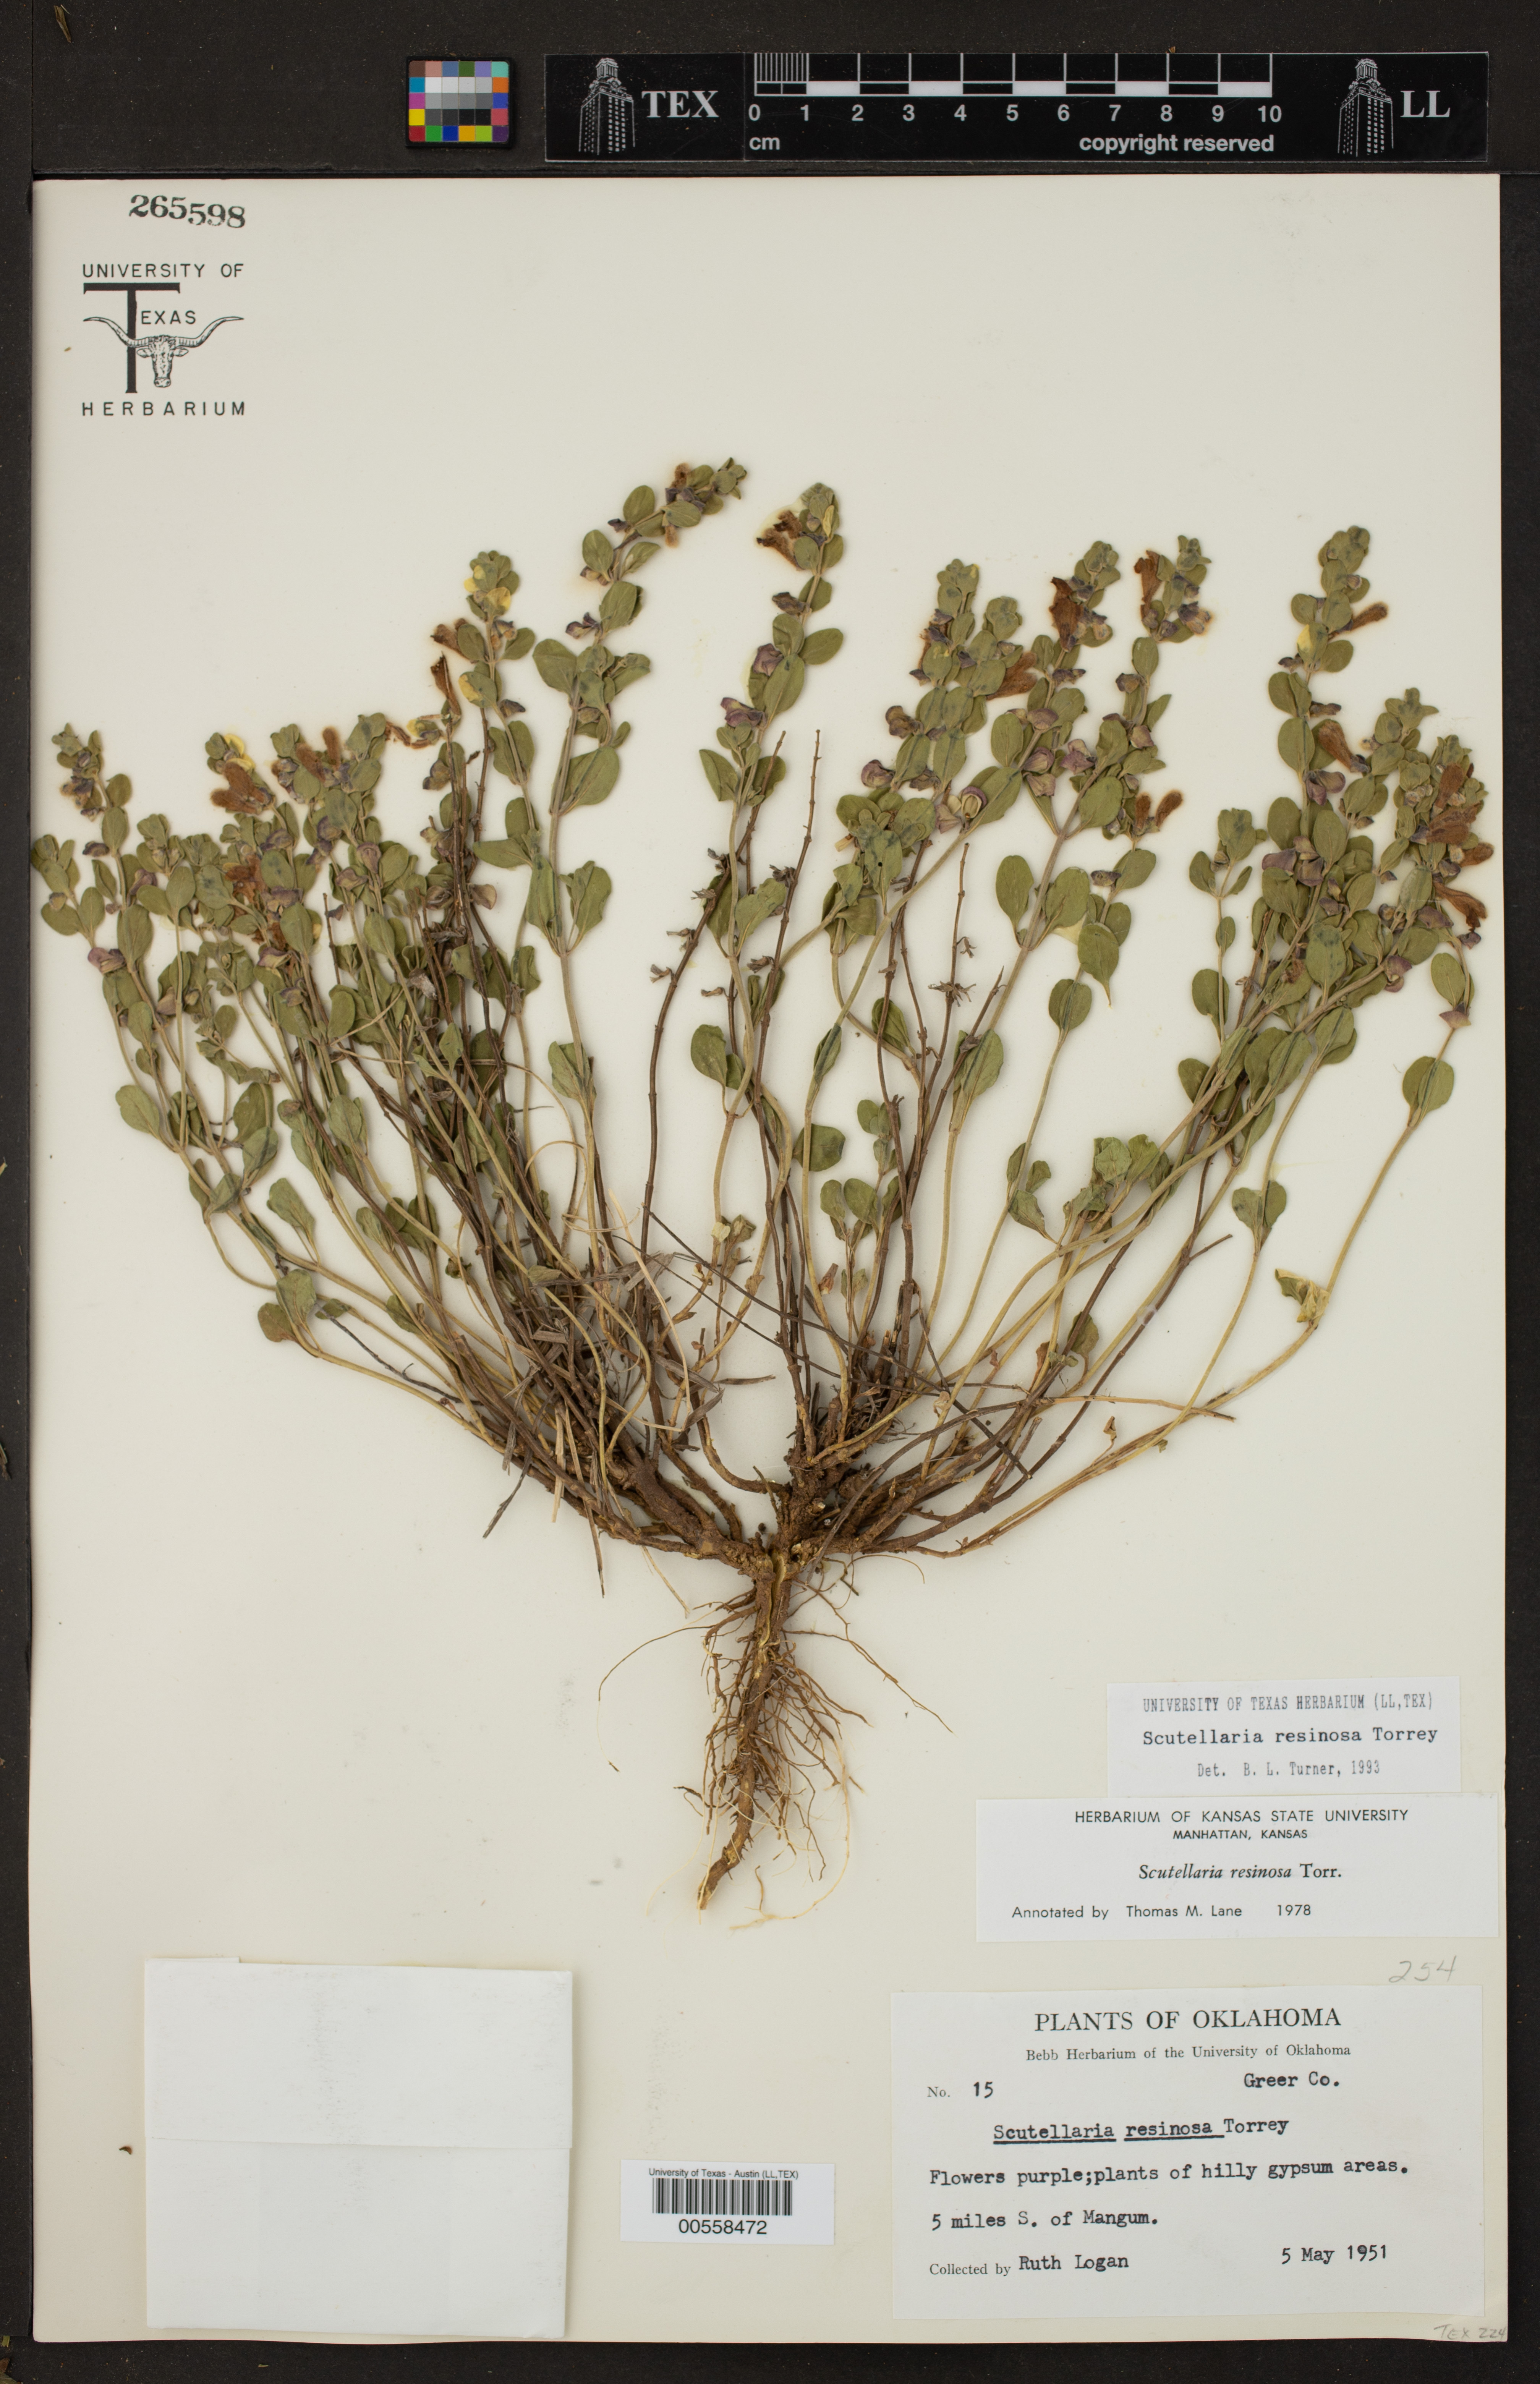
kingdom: Plantae
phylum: Tracheophyta
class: Magnoliopsida
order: Lamiales
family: Lamiaceae
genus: Scutellaria
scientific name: Scutellaria resinosa
